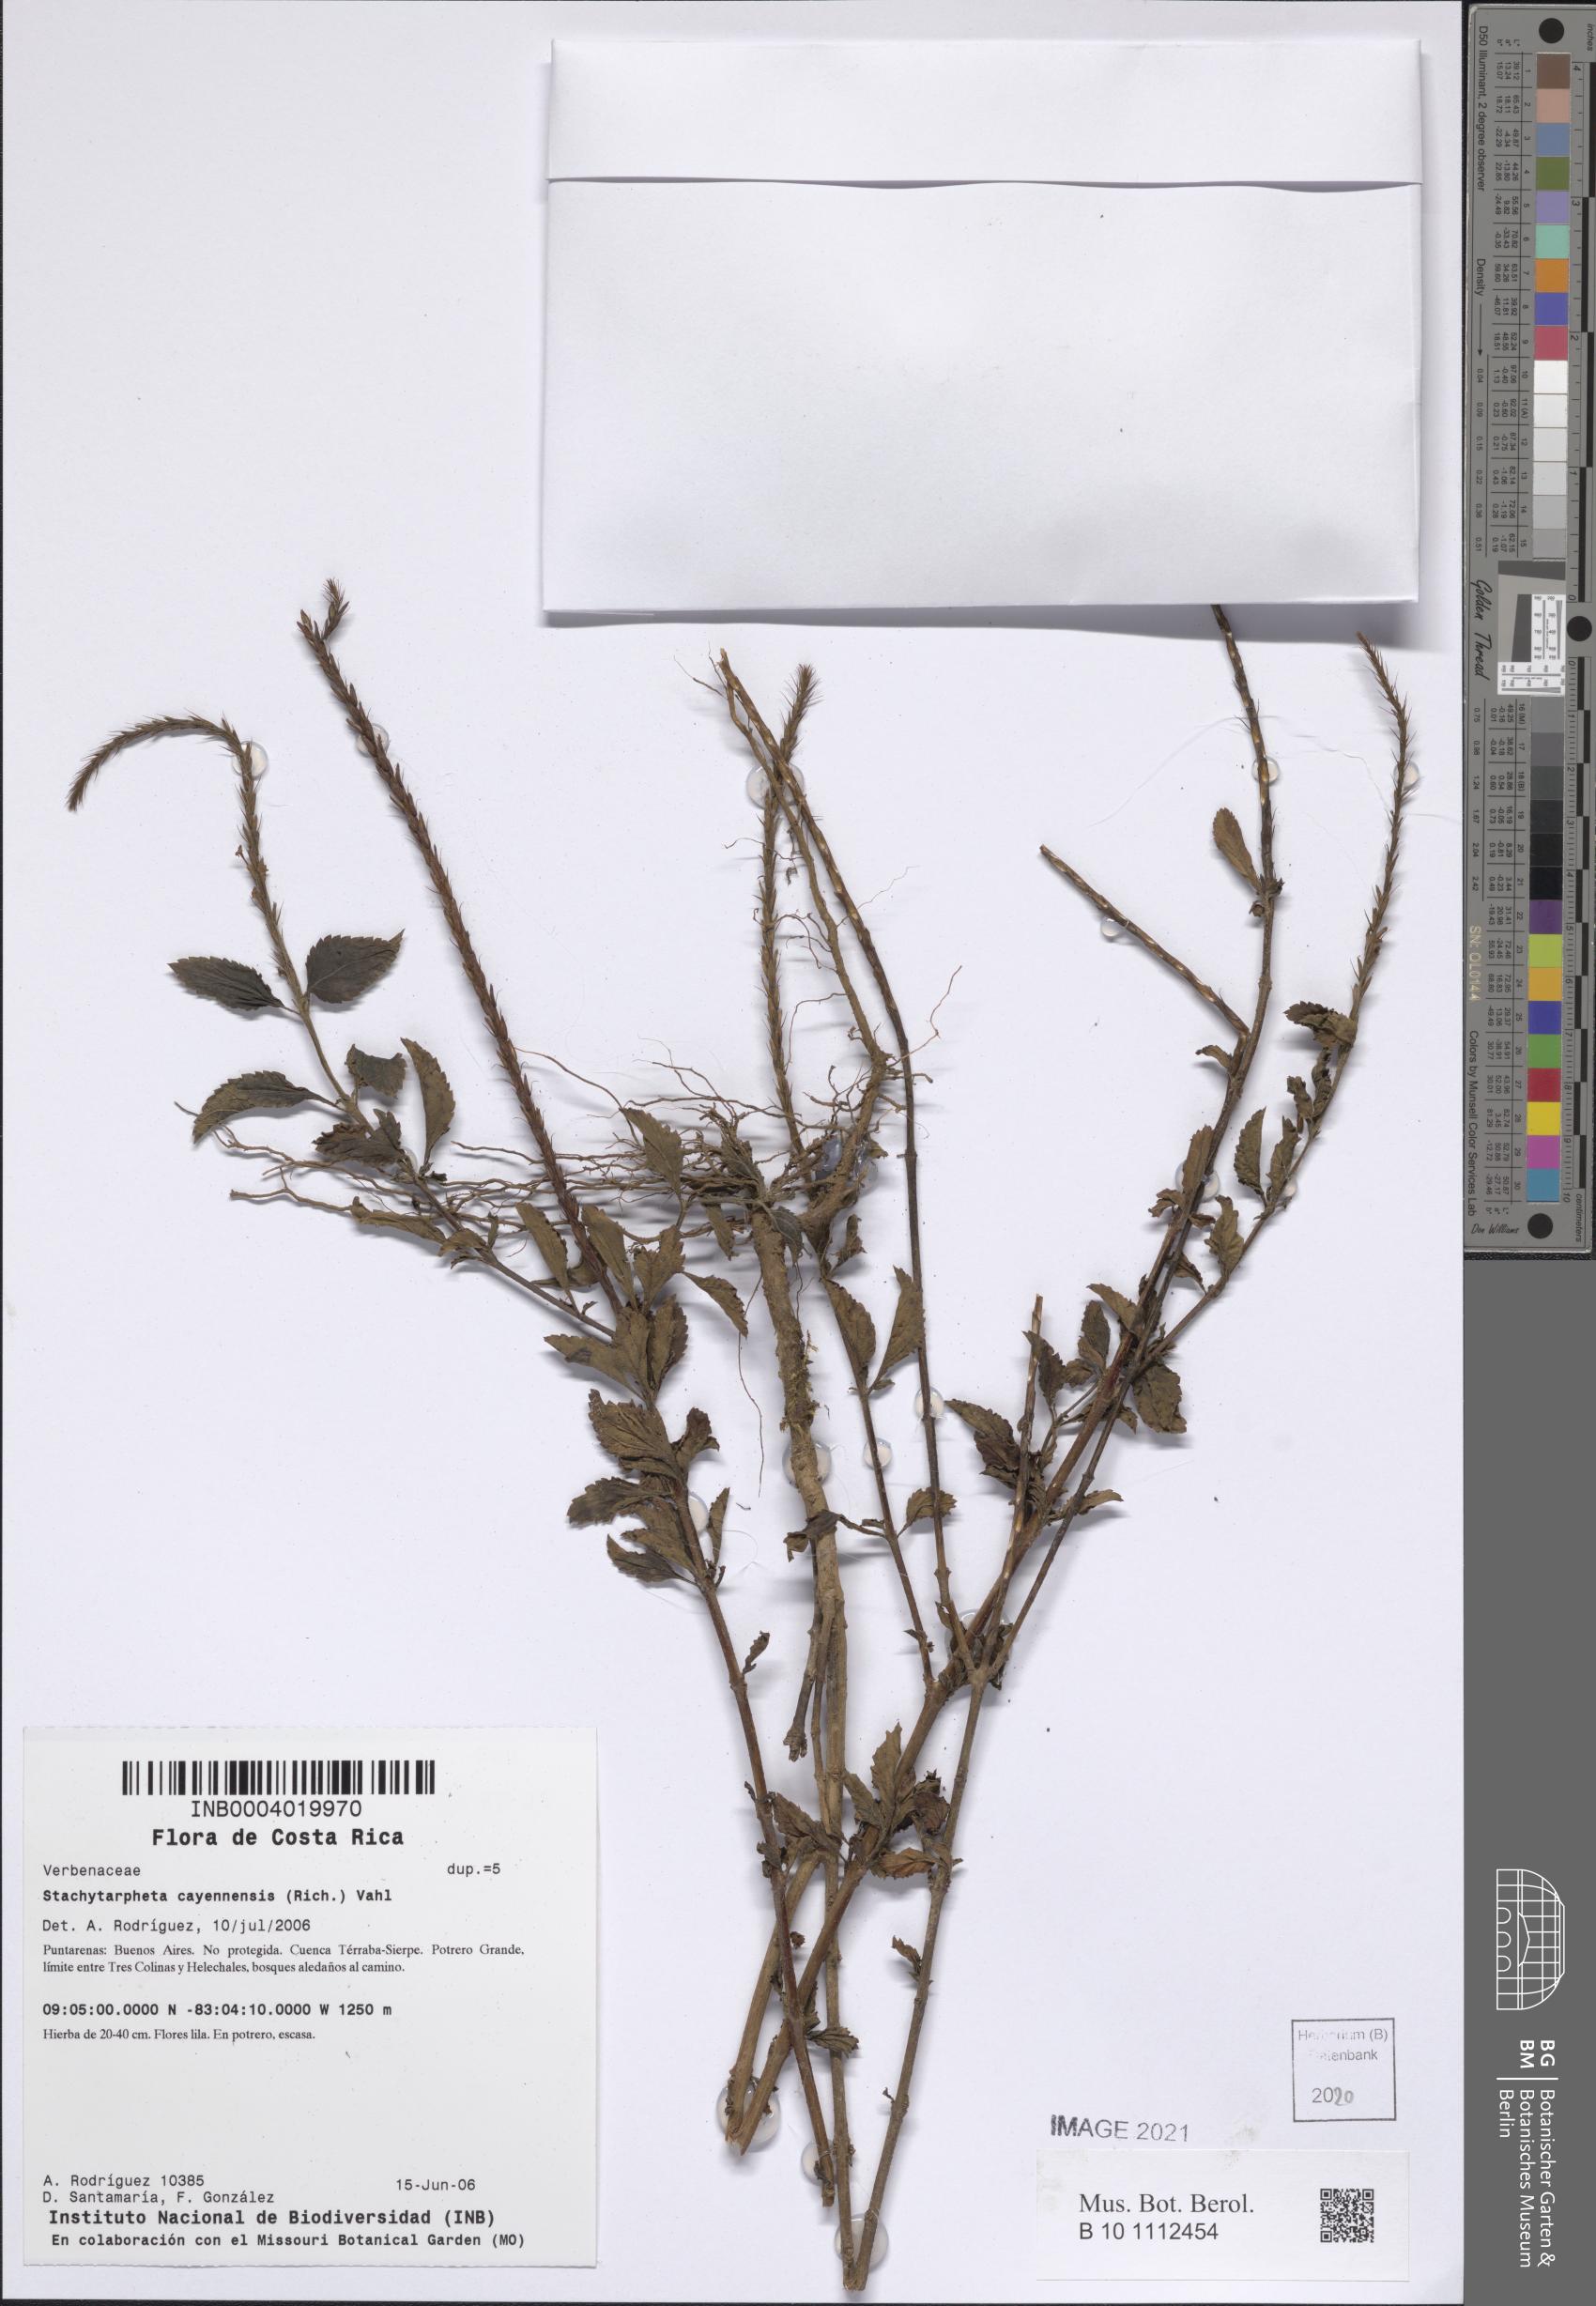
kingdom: Plantae
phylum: Tracheophyta
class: Magnoliopsida
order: Lamiales
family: Verbenaceae
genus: Stachytarpheta
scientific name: Stachytarpheta cayennensis
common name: Cayenne porterweed
